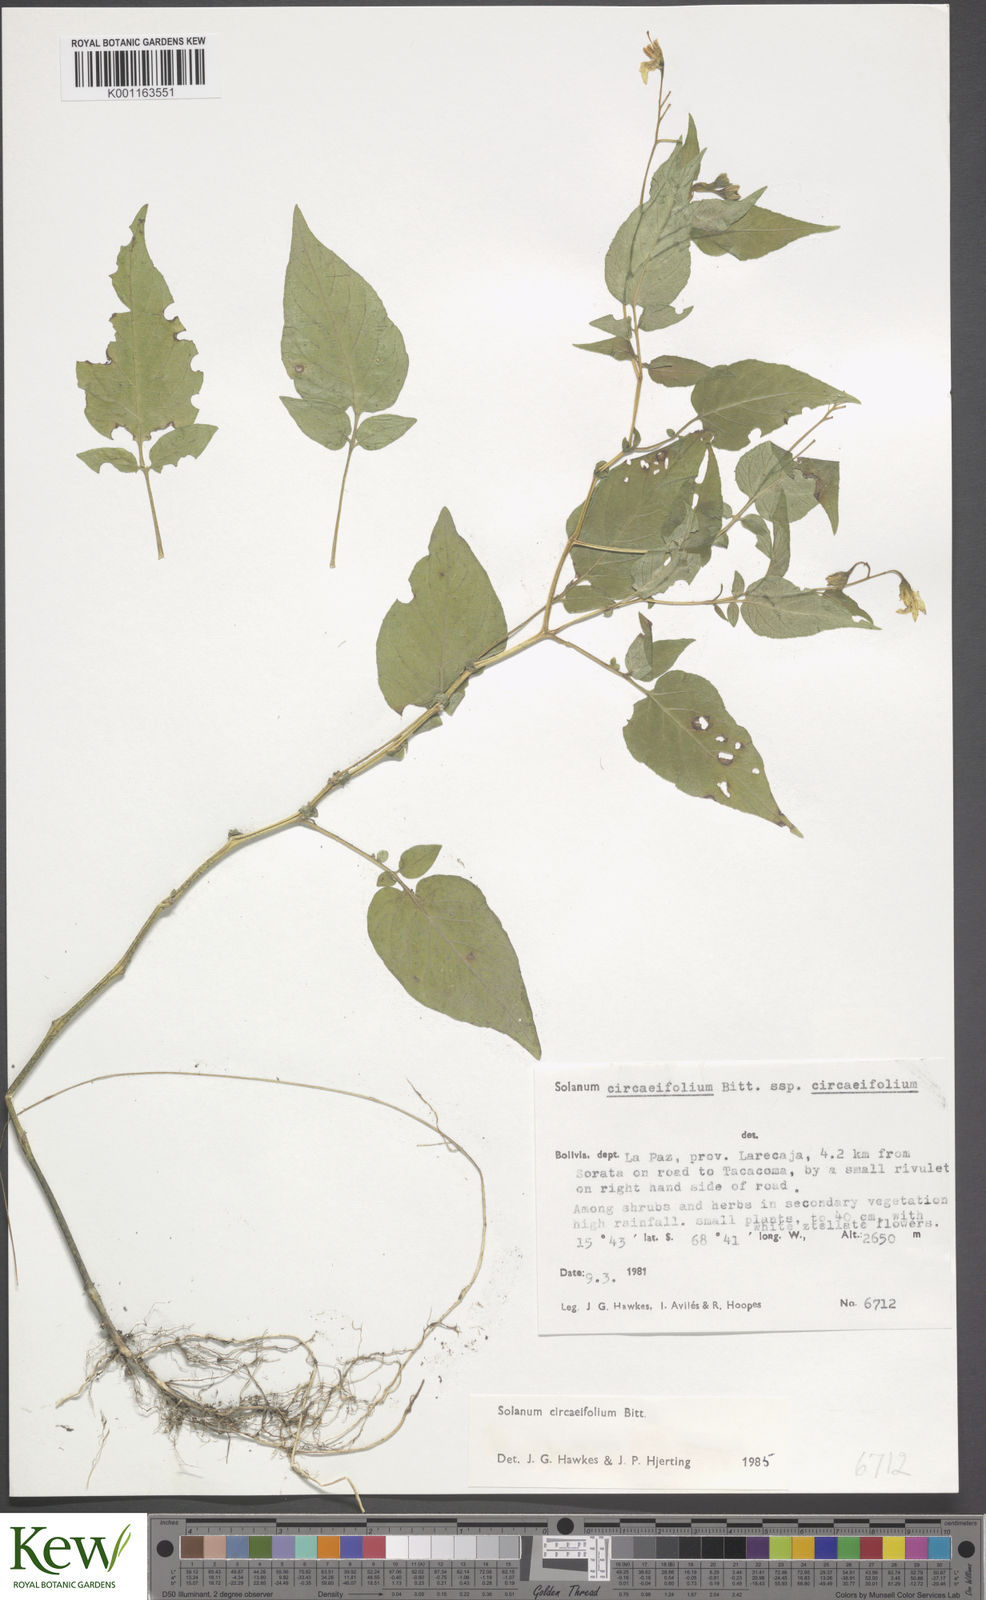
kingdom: Plantae
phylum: Tracheophyta
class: Magnoliopsida
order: Solanales
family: Solanaceae
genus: Solanum
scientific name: Solanum stipuloideum
